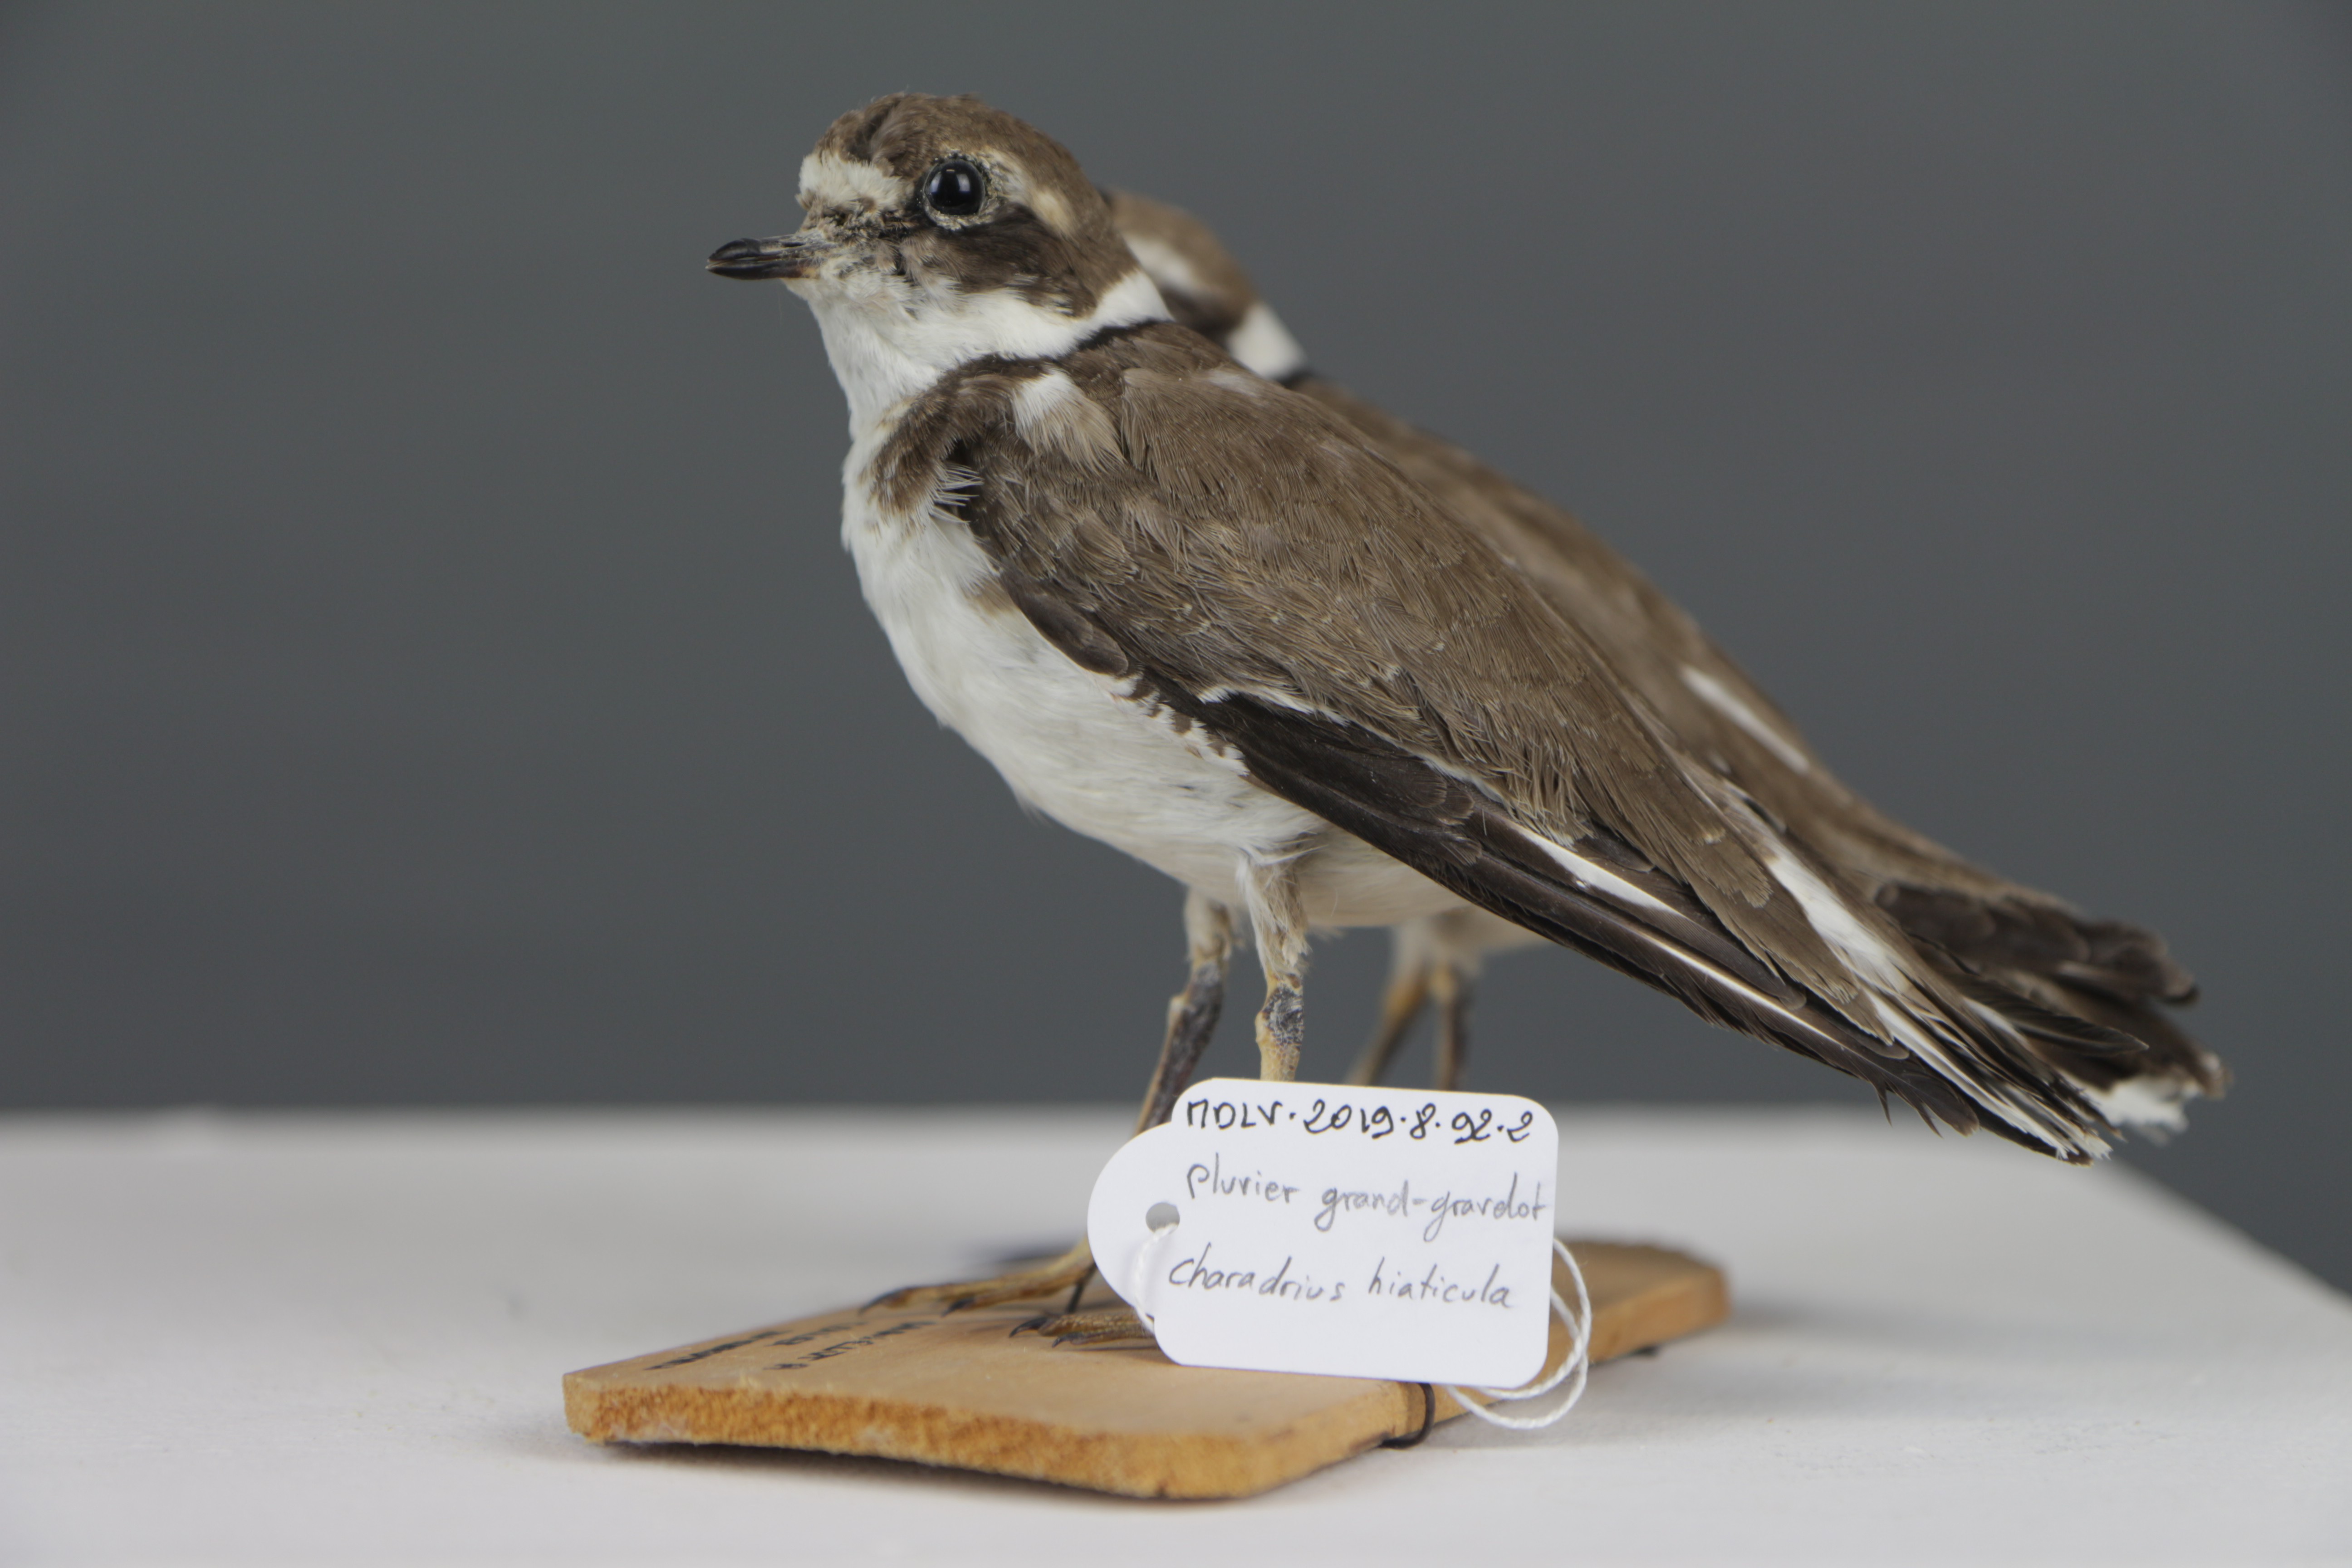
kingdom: Animalia
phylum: Chordata
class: Aves
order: Charadriiformes
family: Charadriidae
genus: Charadrius
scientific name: Charadrius hiaticula
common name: Common ringed plover
